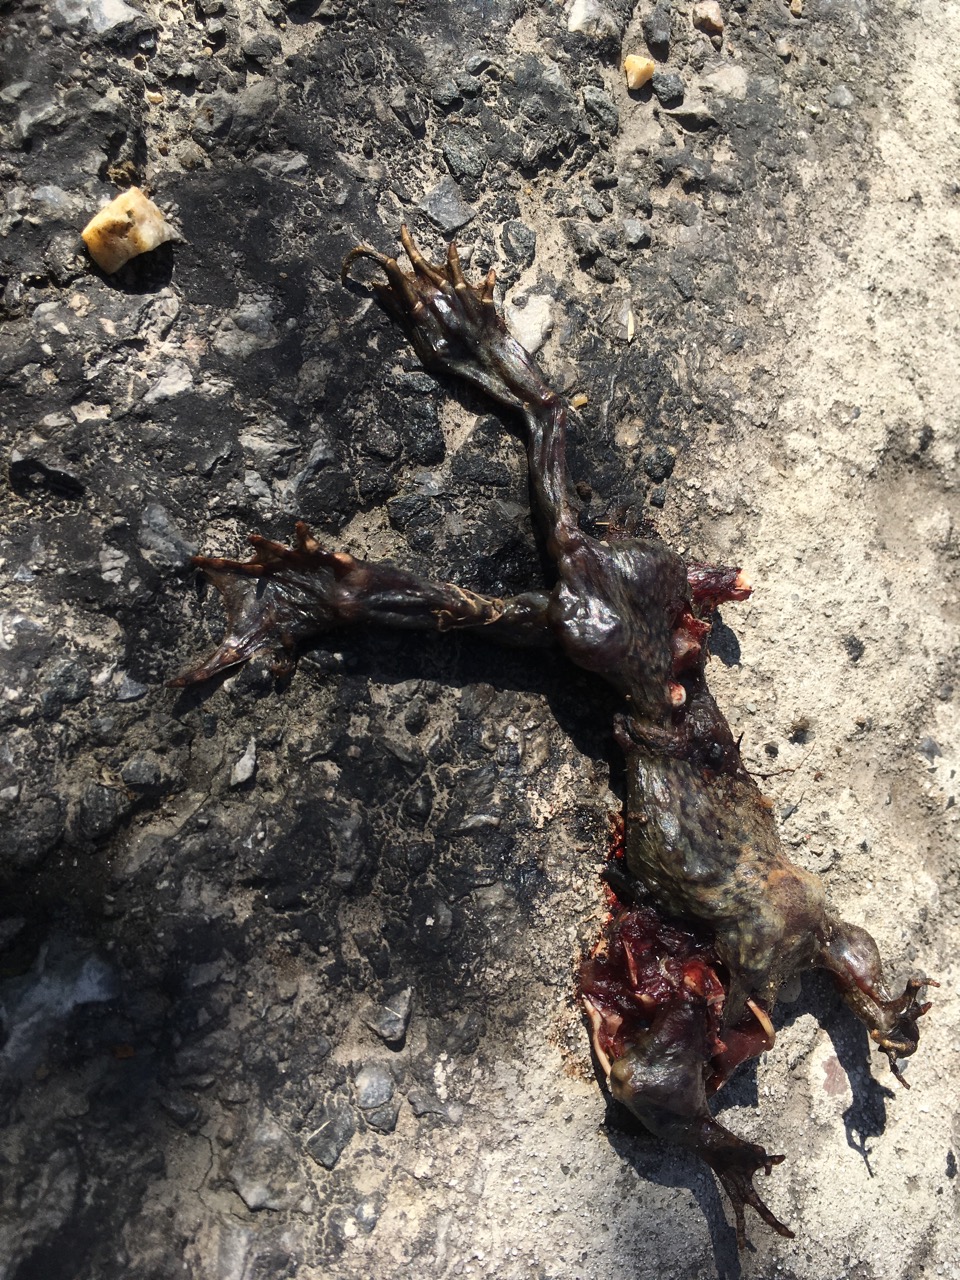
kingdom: Animalia
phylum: Chordata
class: Amphibia
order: Anura
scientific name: Anura
